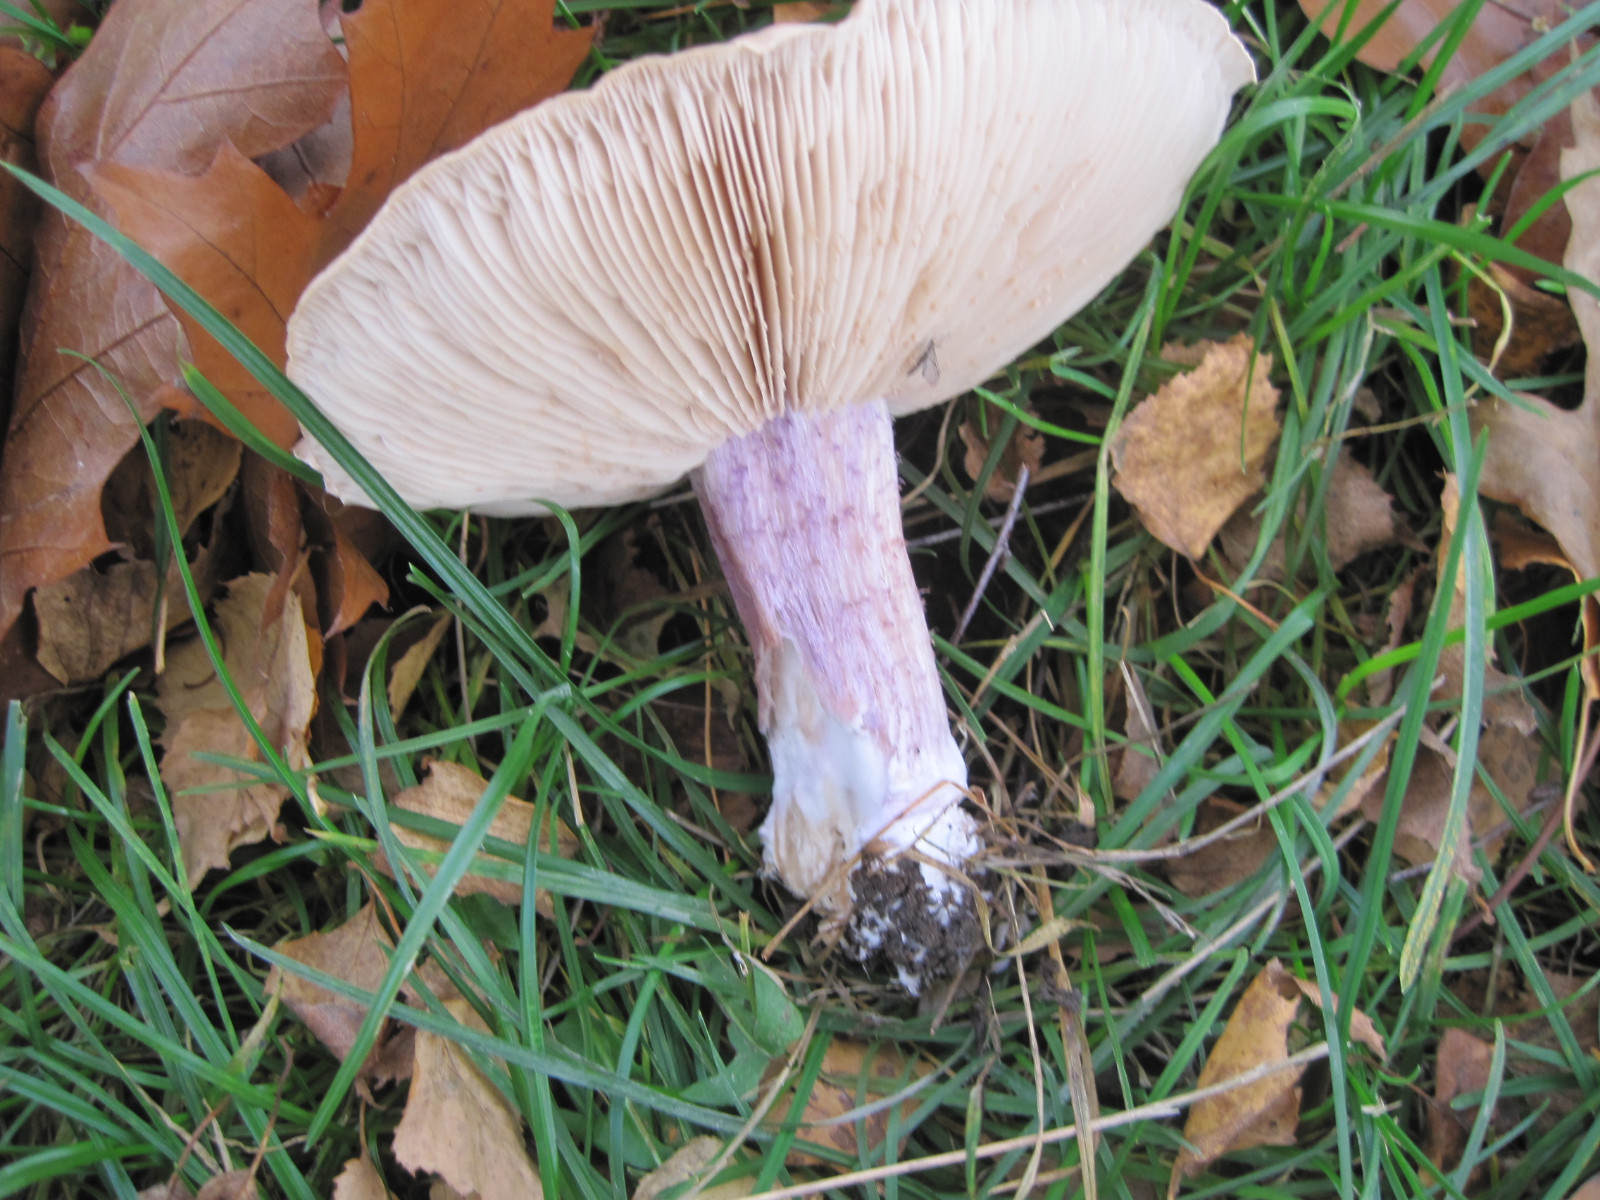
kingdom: Fungi
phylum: Basidiomycota
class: Agaricomycetes
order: Agaricales
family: Tricholomataceae
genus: Lepista
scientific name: Lepista personata
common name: bleg hekseringshat
